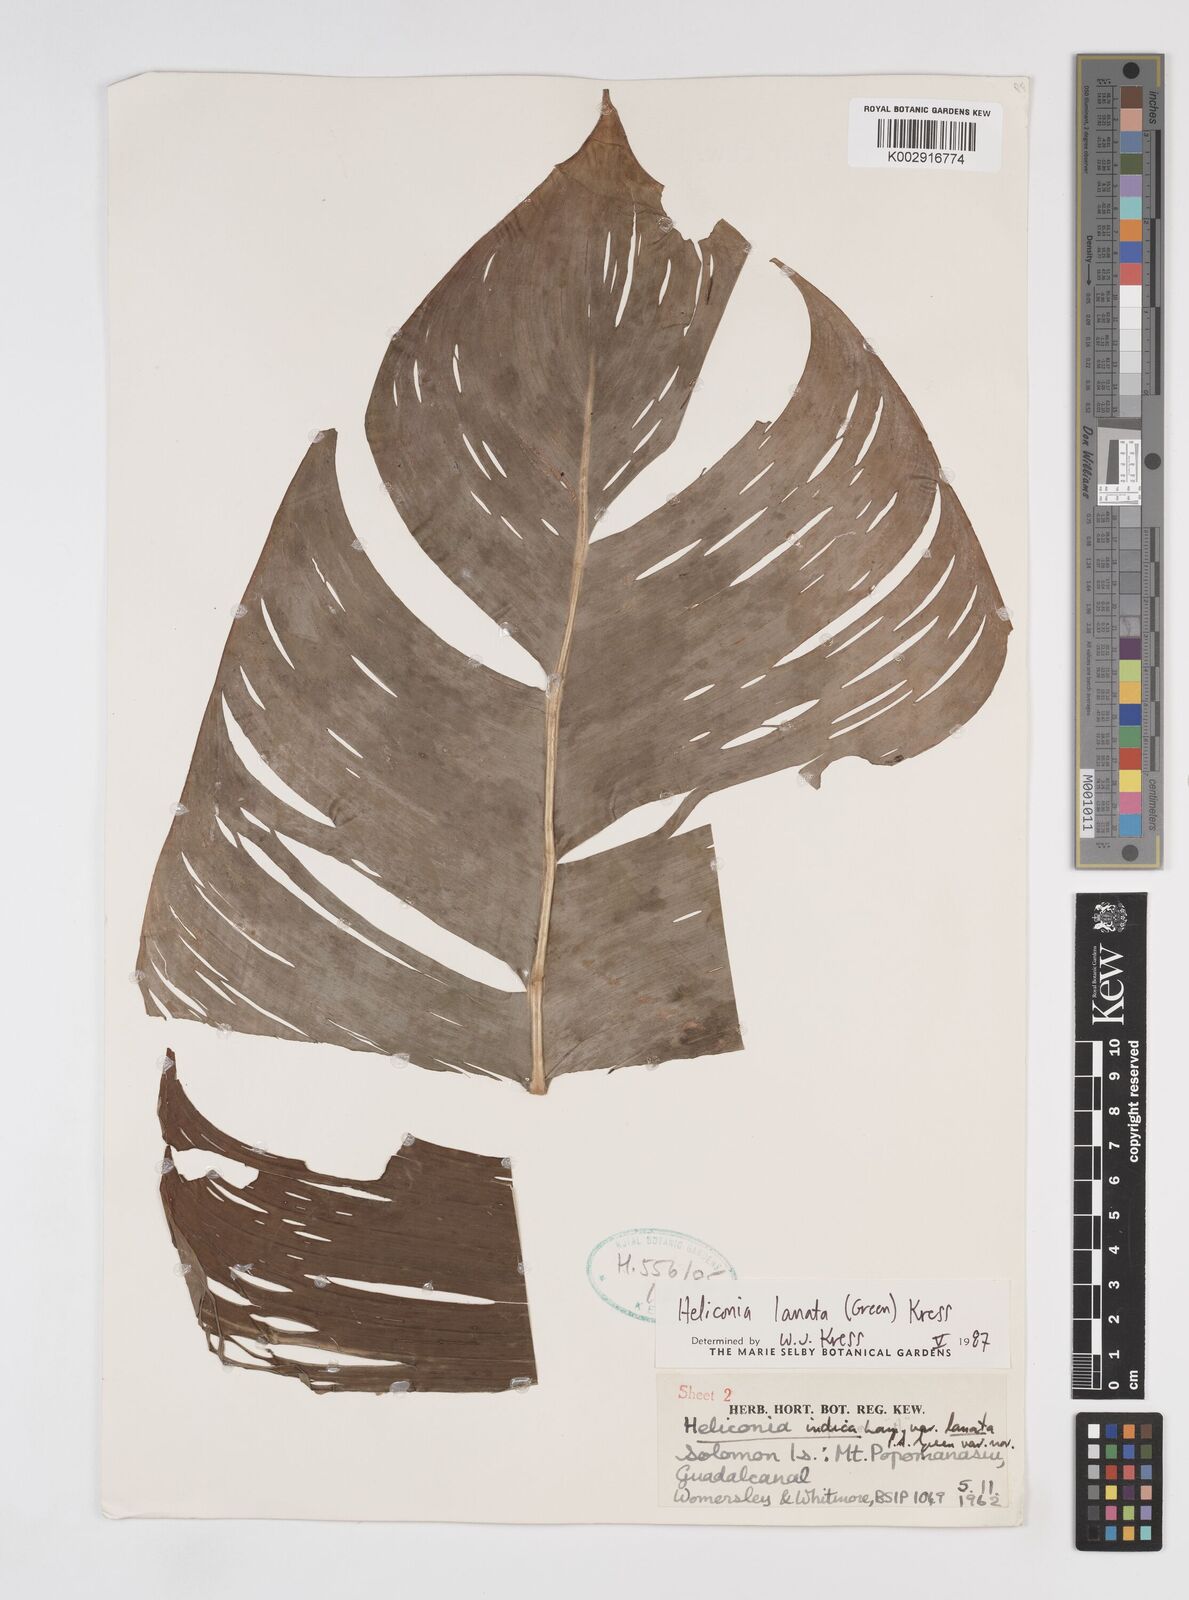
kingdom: Plantae
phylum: Tracheophyta
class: Liliopsida
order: Zingiberales
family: Heliconiaceae
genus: Heliconia
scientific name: Heliconia lanata
